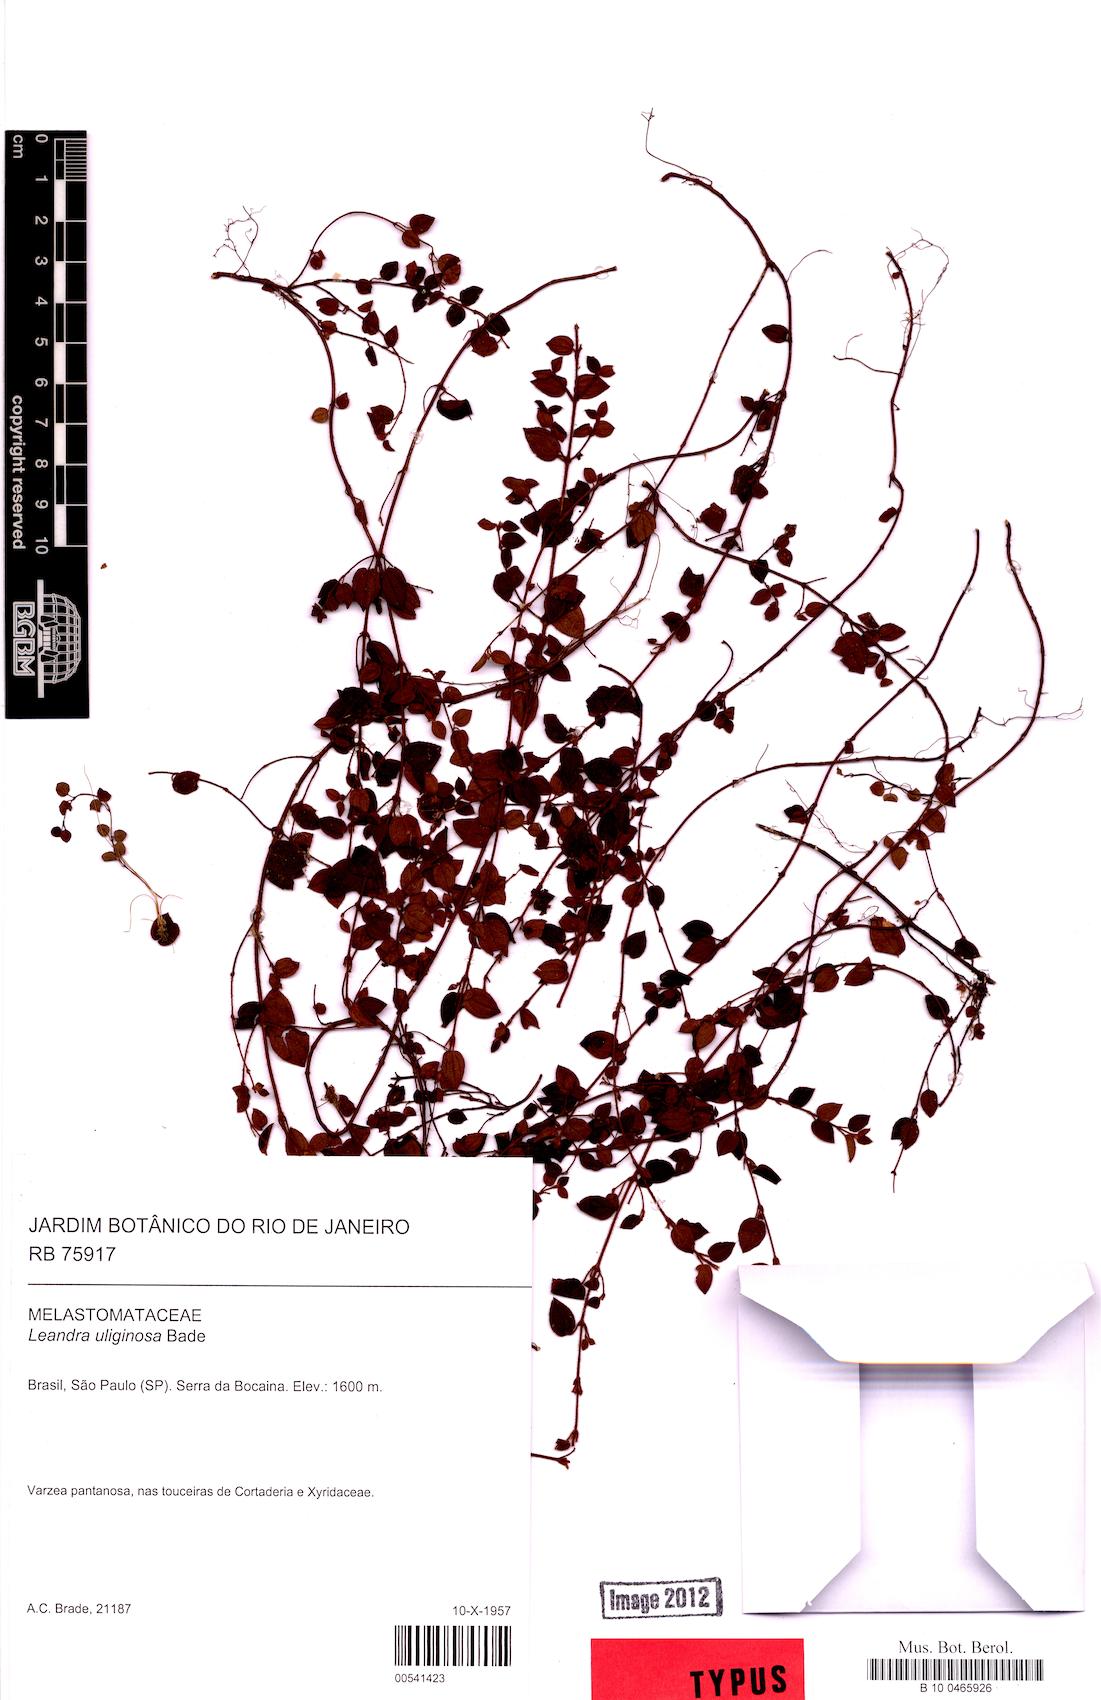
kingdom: Plantae
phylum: Tracheophyta
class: Magnoliopsida
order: Myrtales
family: Melastomataceae
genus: Miconia
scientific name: Miconia uliginosa
